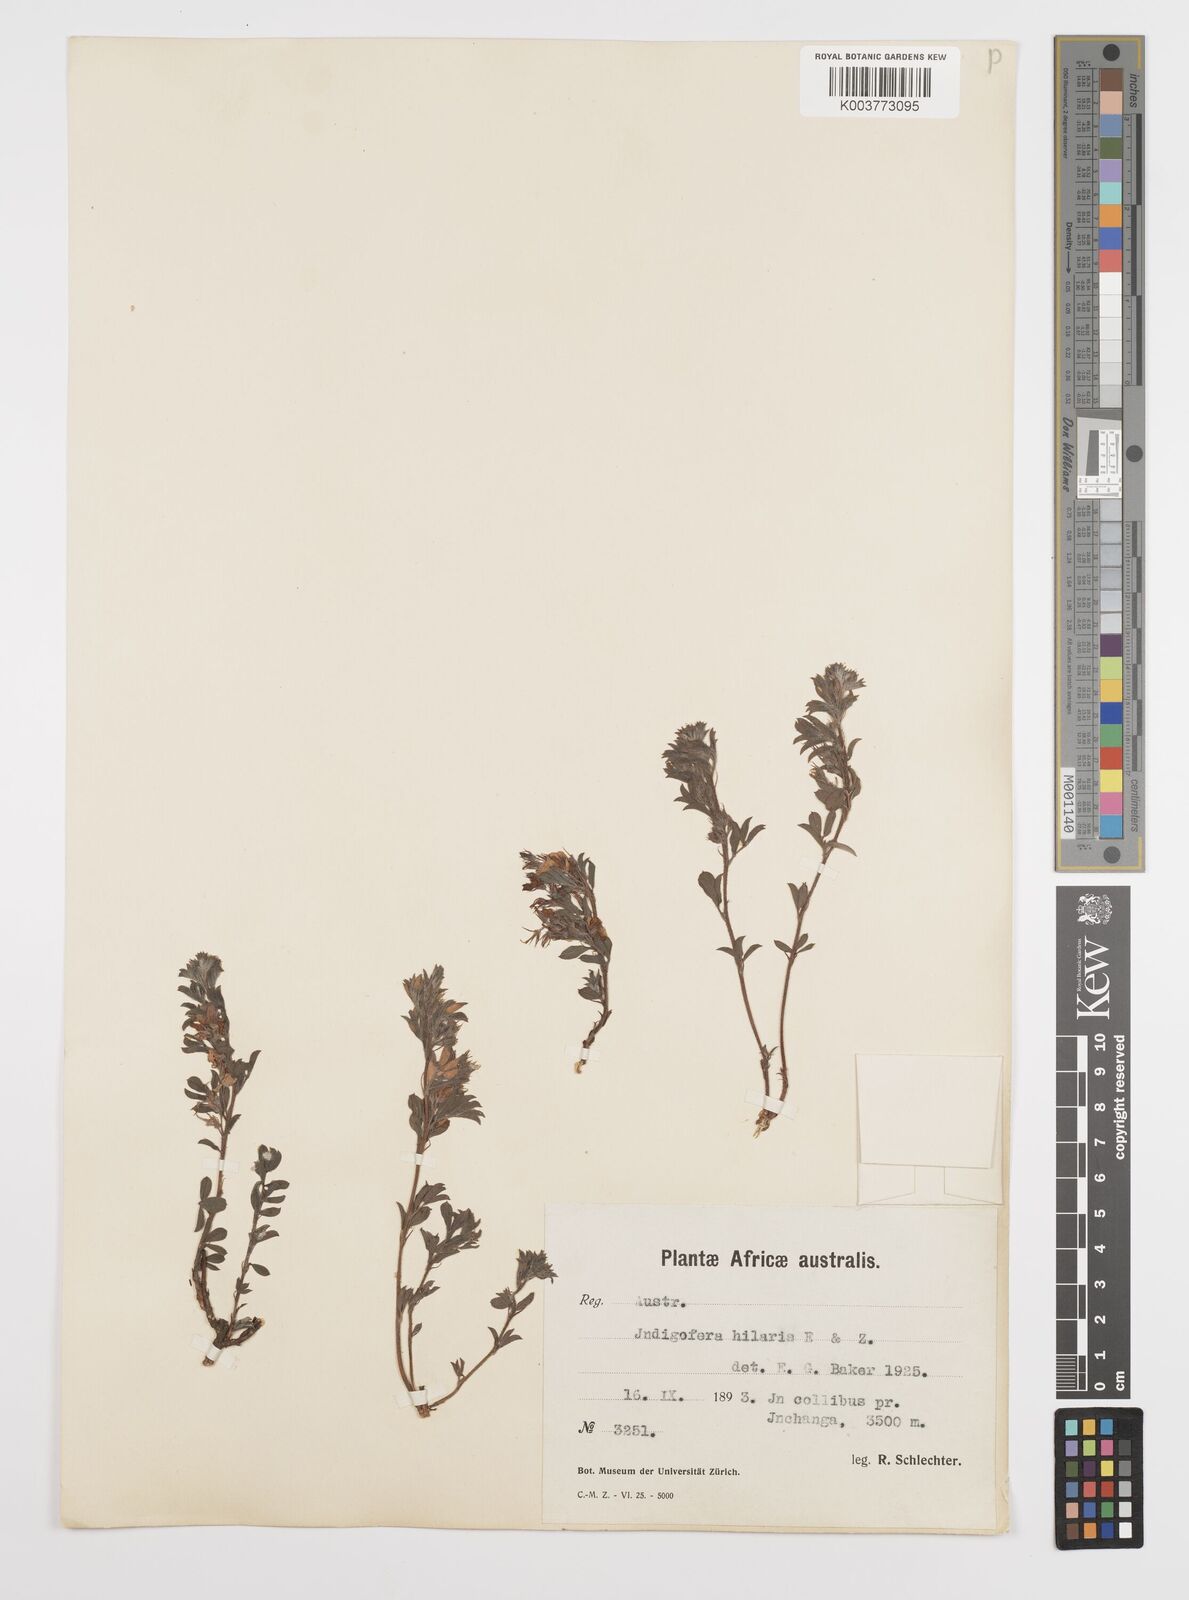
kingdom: Plantae
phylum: Tracheophyta
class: Magnoliopsida
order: Fabales
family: Fabaceae
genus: Indigofera
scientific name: Indigofera
